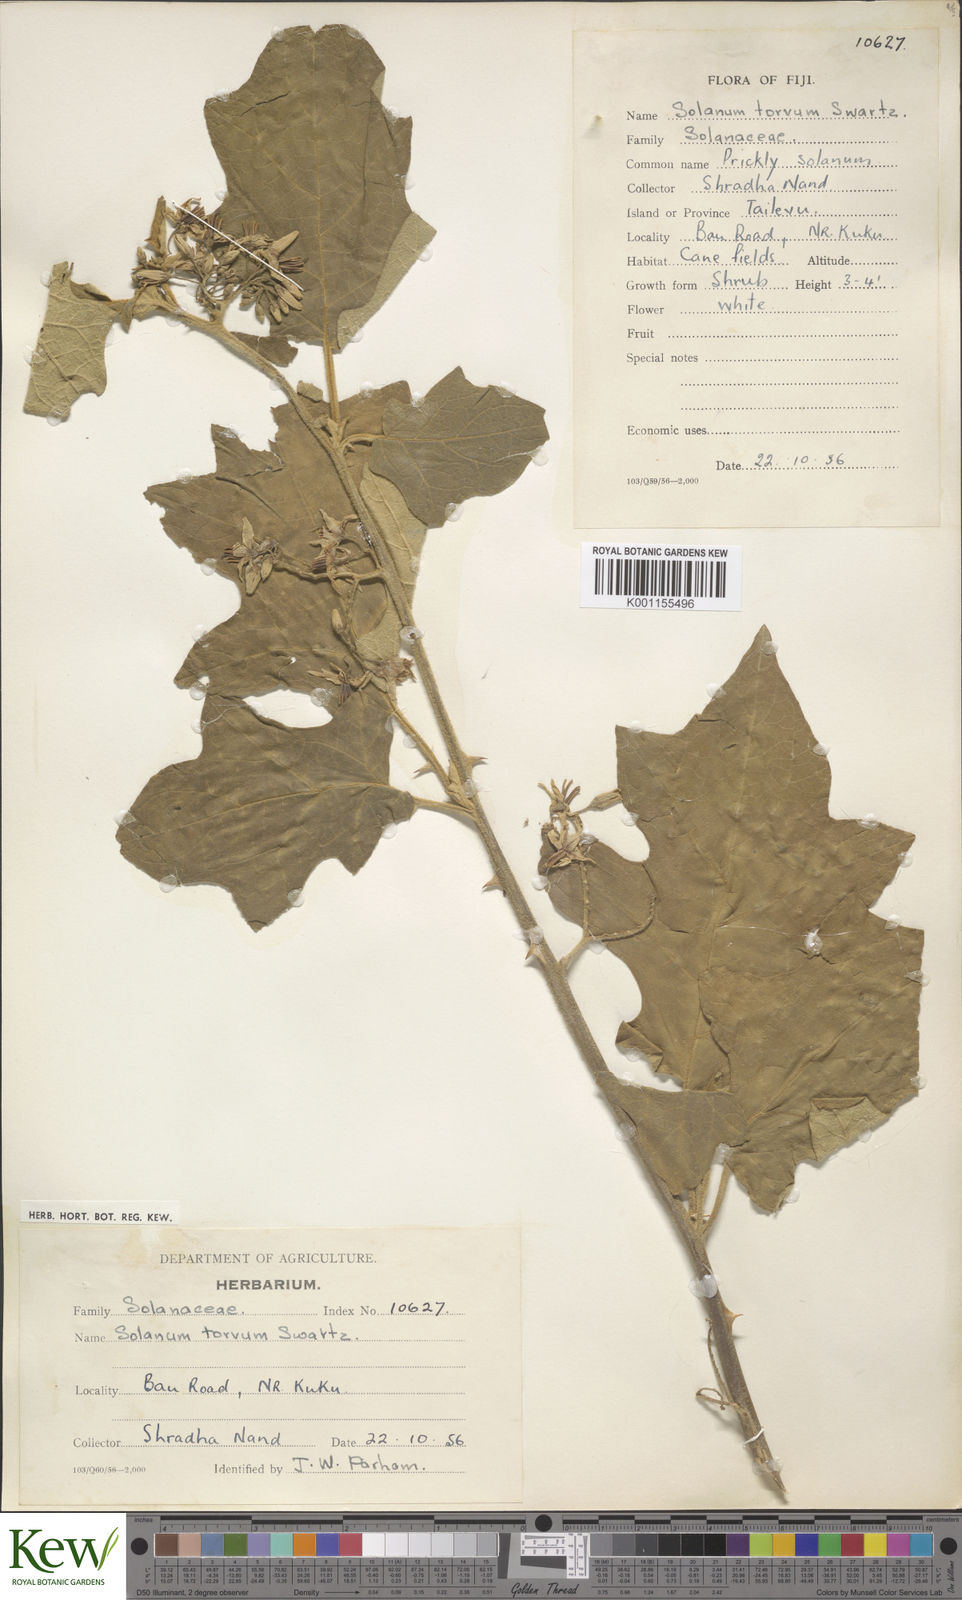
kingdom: Plantae
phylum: Tracheophyta
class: Magnoliopsida
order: Solanales
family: Solanaceae
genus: Solanum
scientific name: Solanum torvum
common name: Turkey berry
